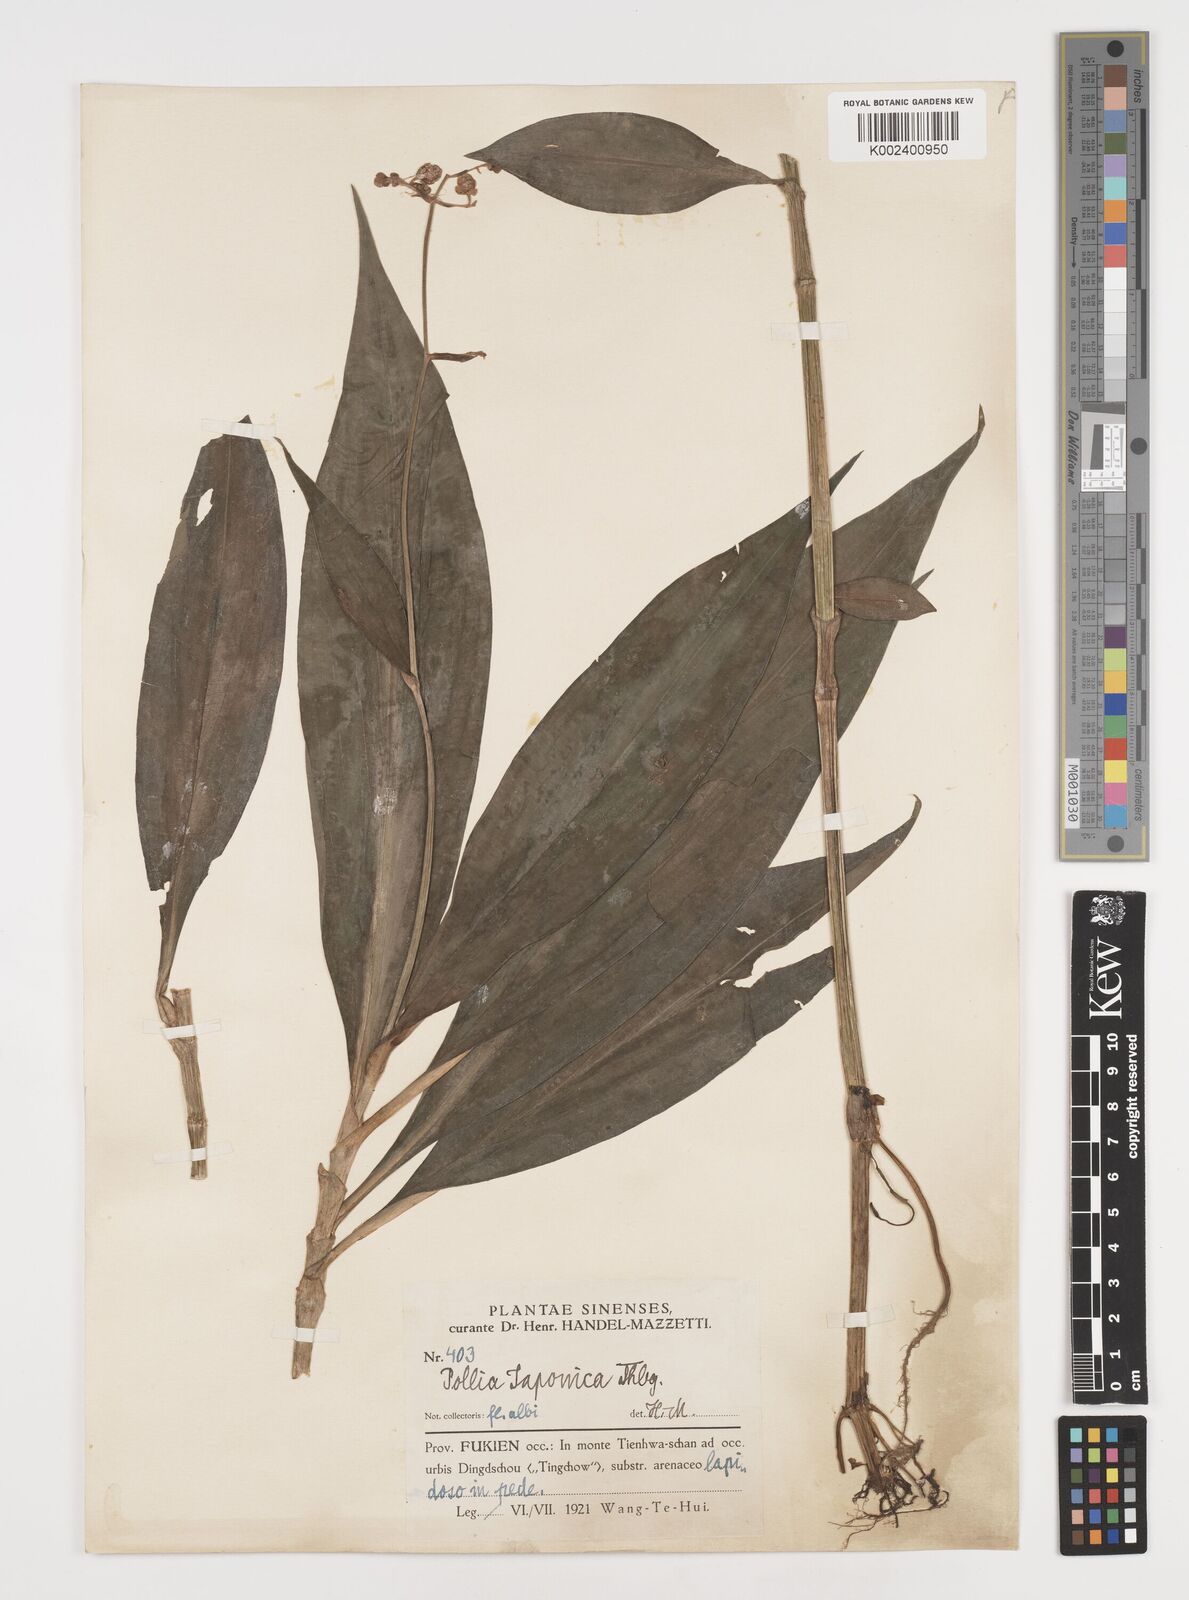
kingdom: Plantae
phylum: Tracheophyta
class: Liliopsida
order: Commelinales
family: Commelinaceae
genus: Pollia
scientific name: Pollia japonica
